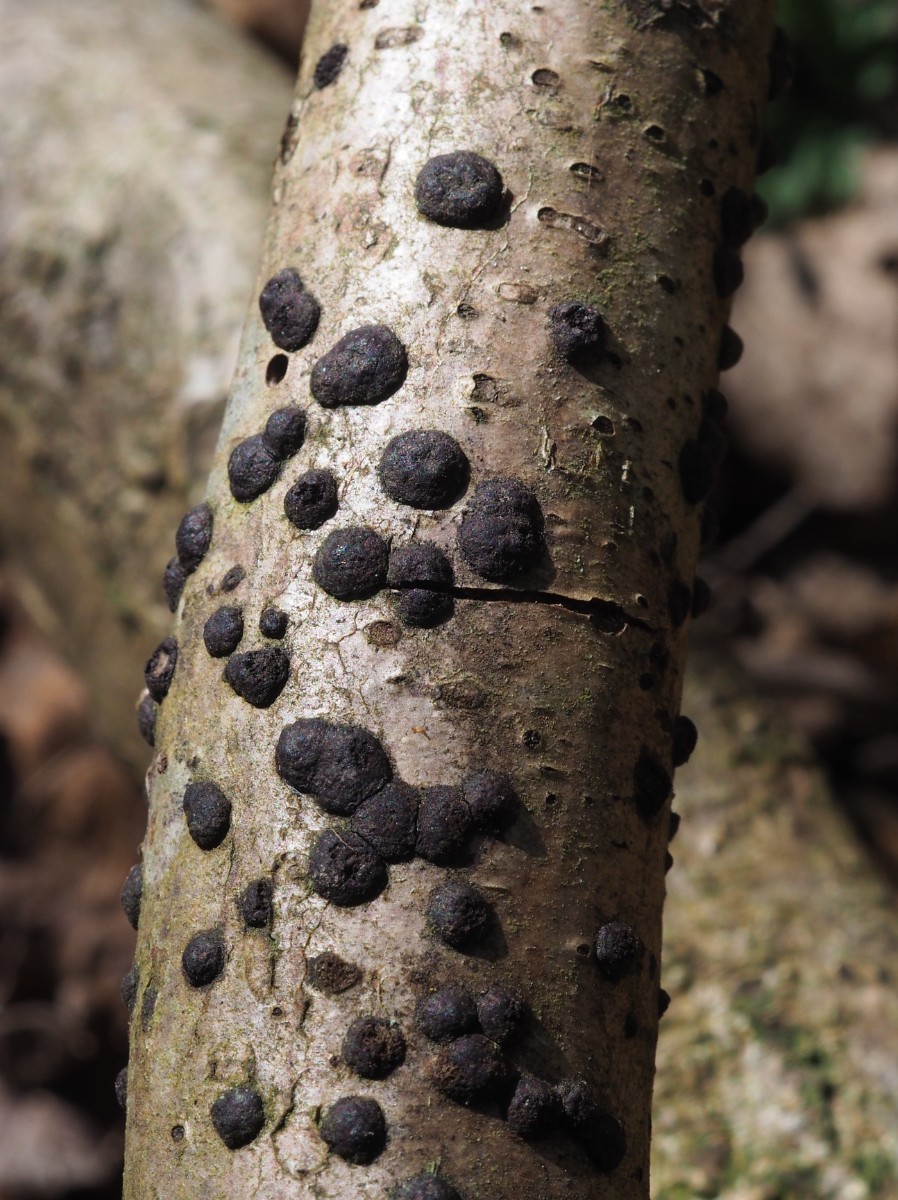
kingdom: Fungi
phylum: Ascomycota
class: Sordariomycetes
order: Xylariales
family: Hypoxylaceae
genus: Hypoxylon
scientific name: Hypoxylon fuscum
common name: kegleformet kulbær
